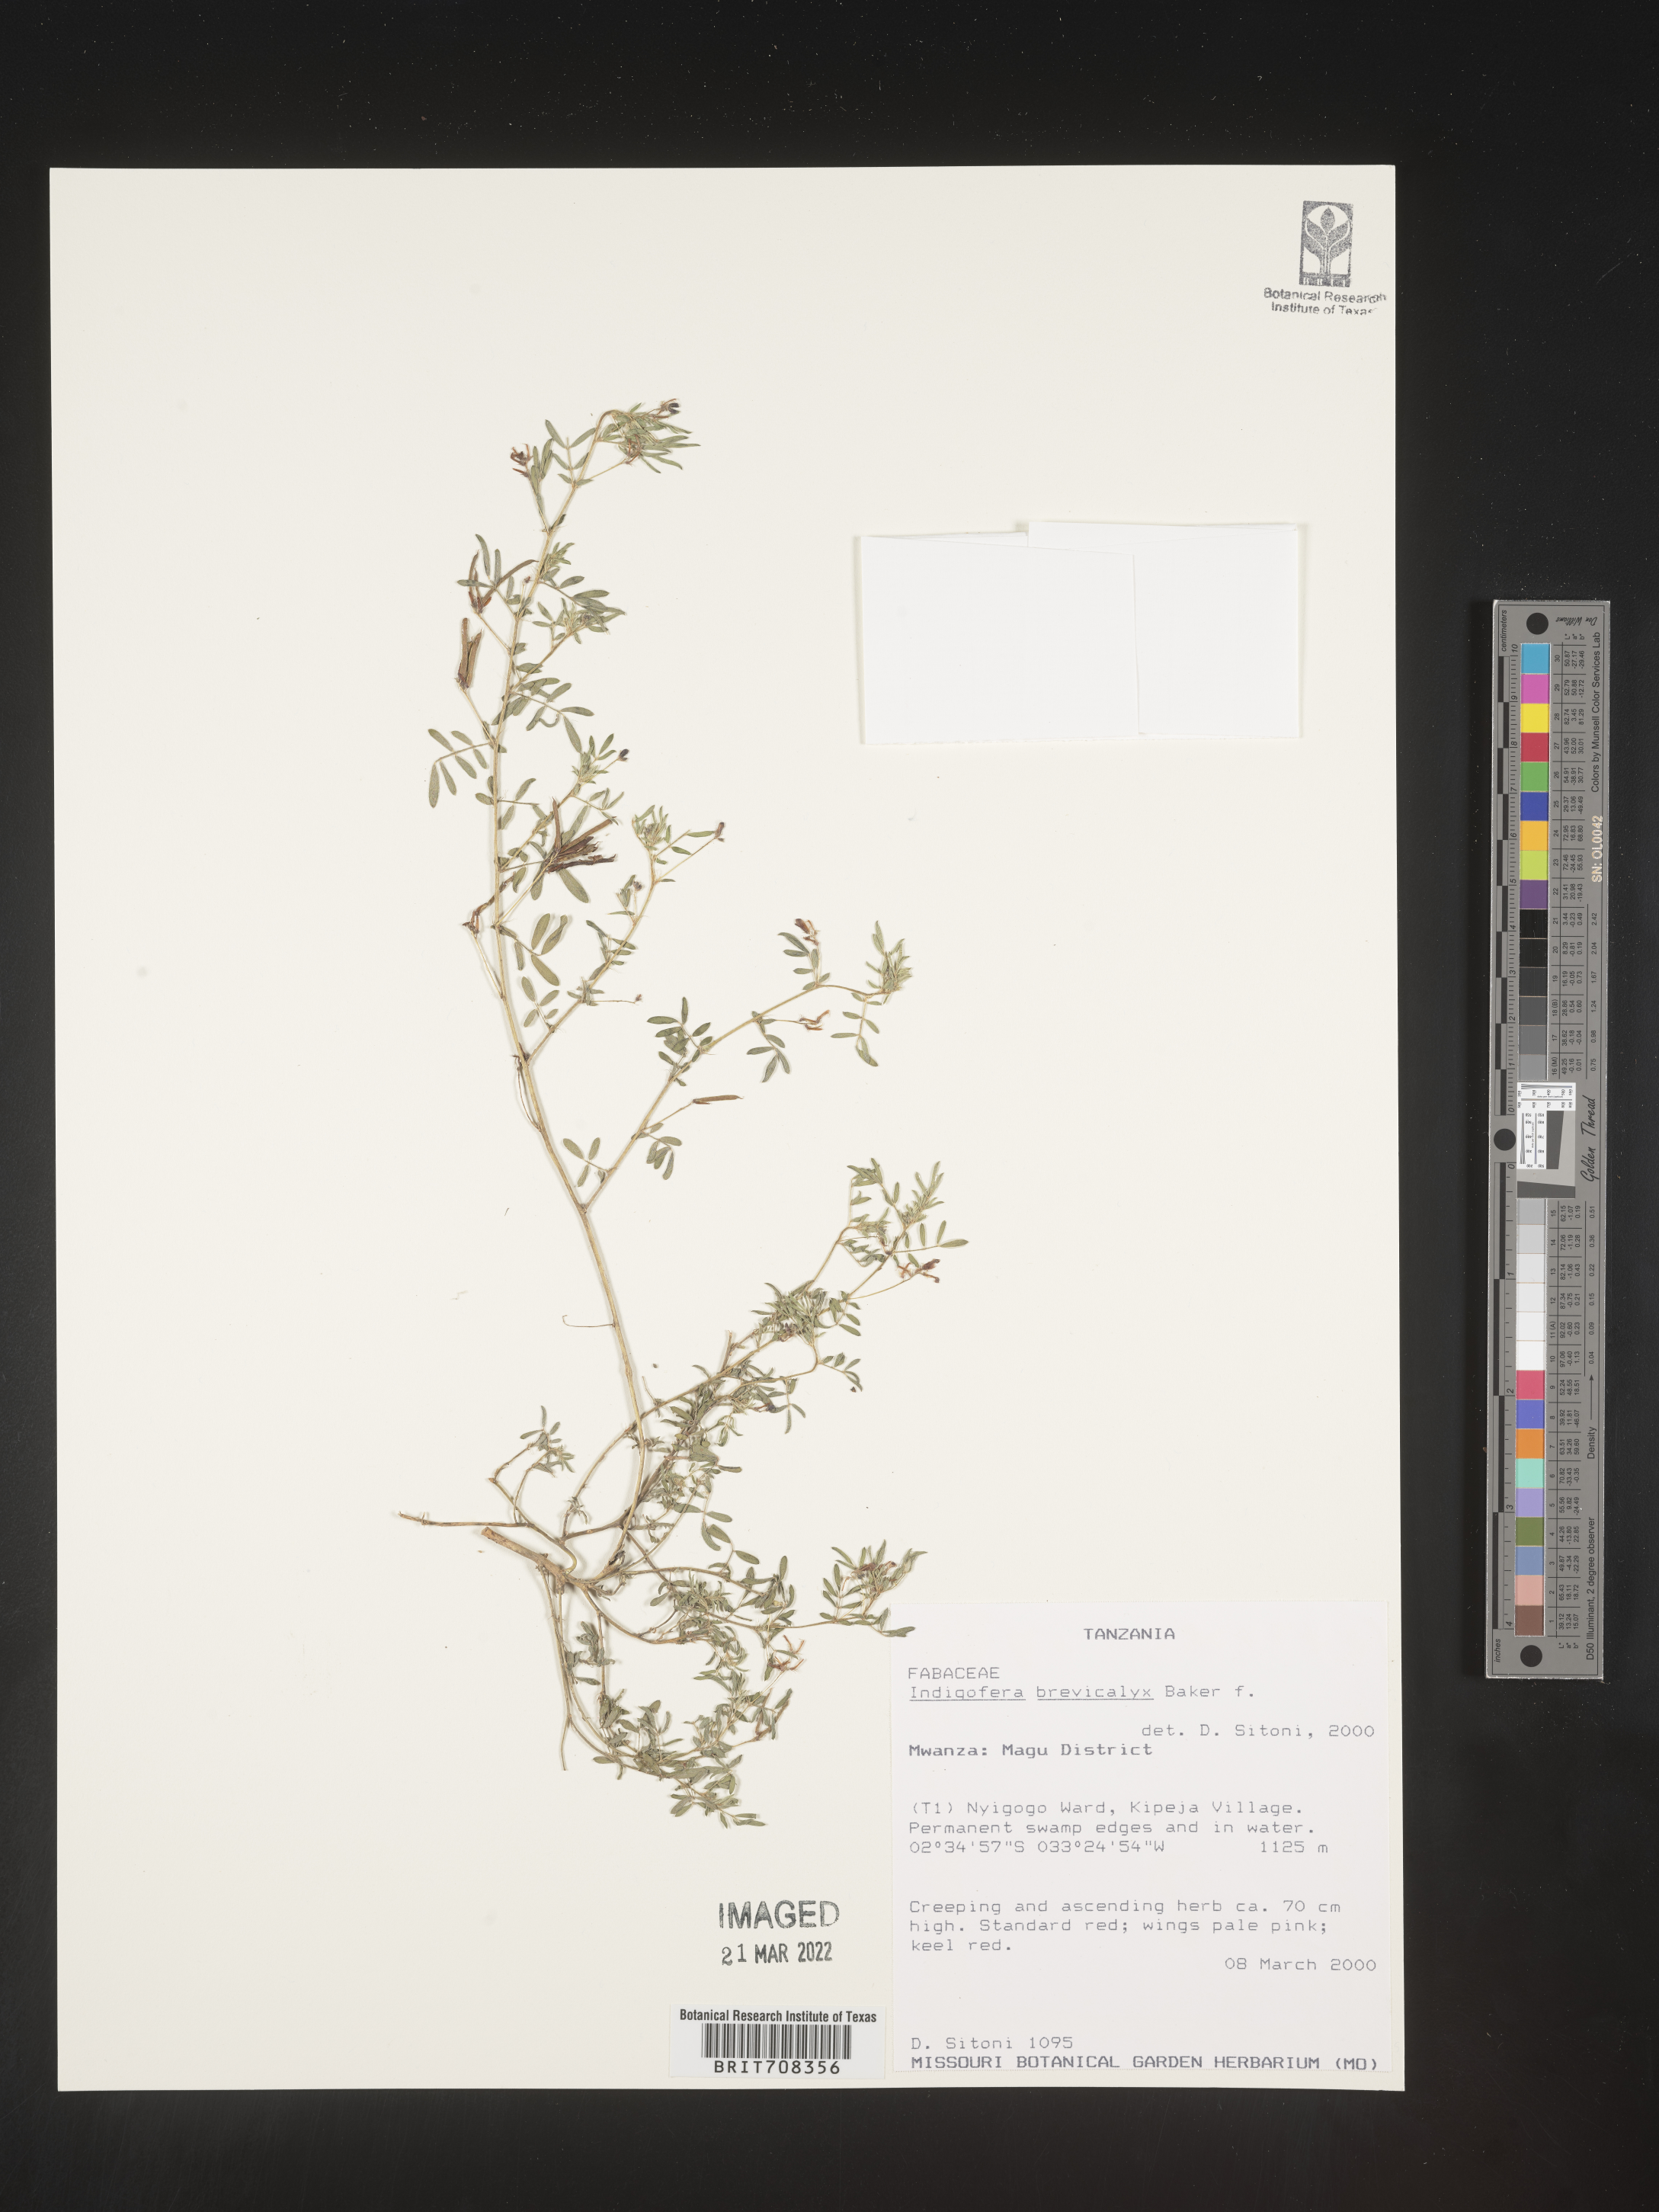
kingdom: Plantae
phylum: Tracheophyta
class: Magnoliopsida
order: Fabales
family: Fabaceae
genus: Indigofera
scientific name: Indigofera
